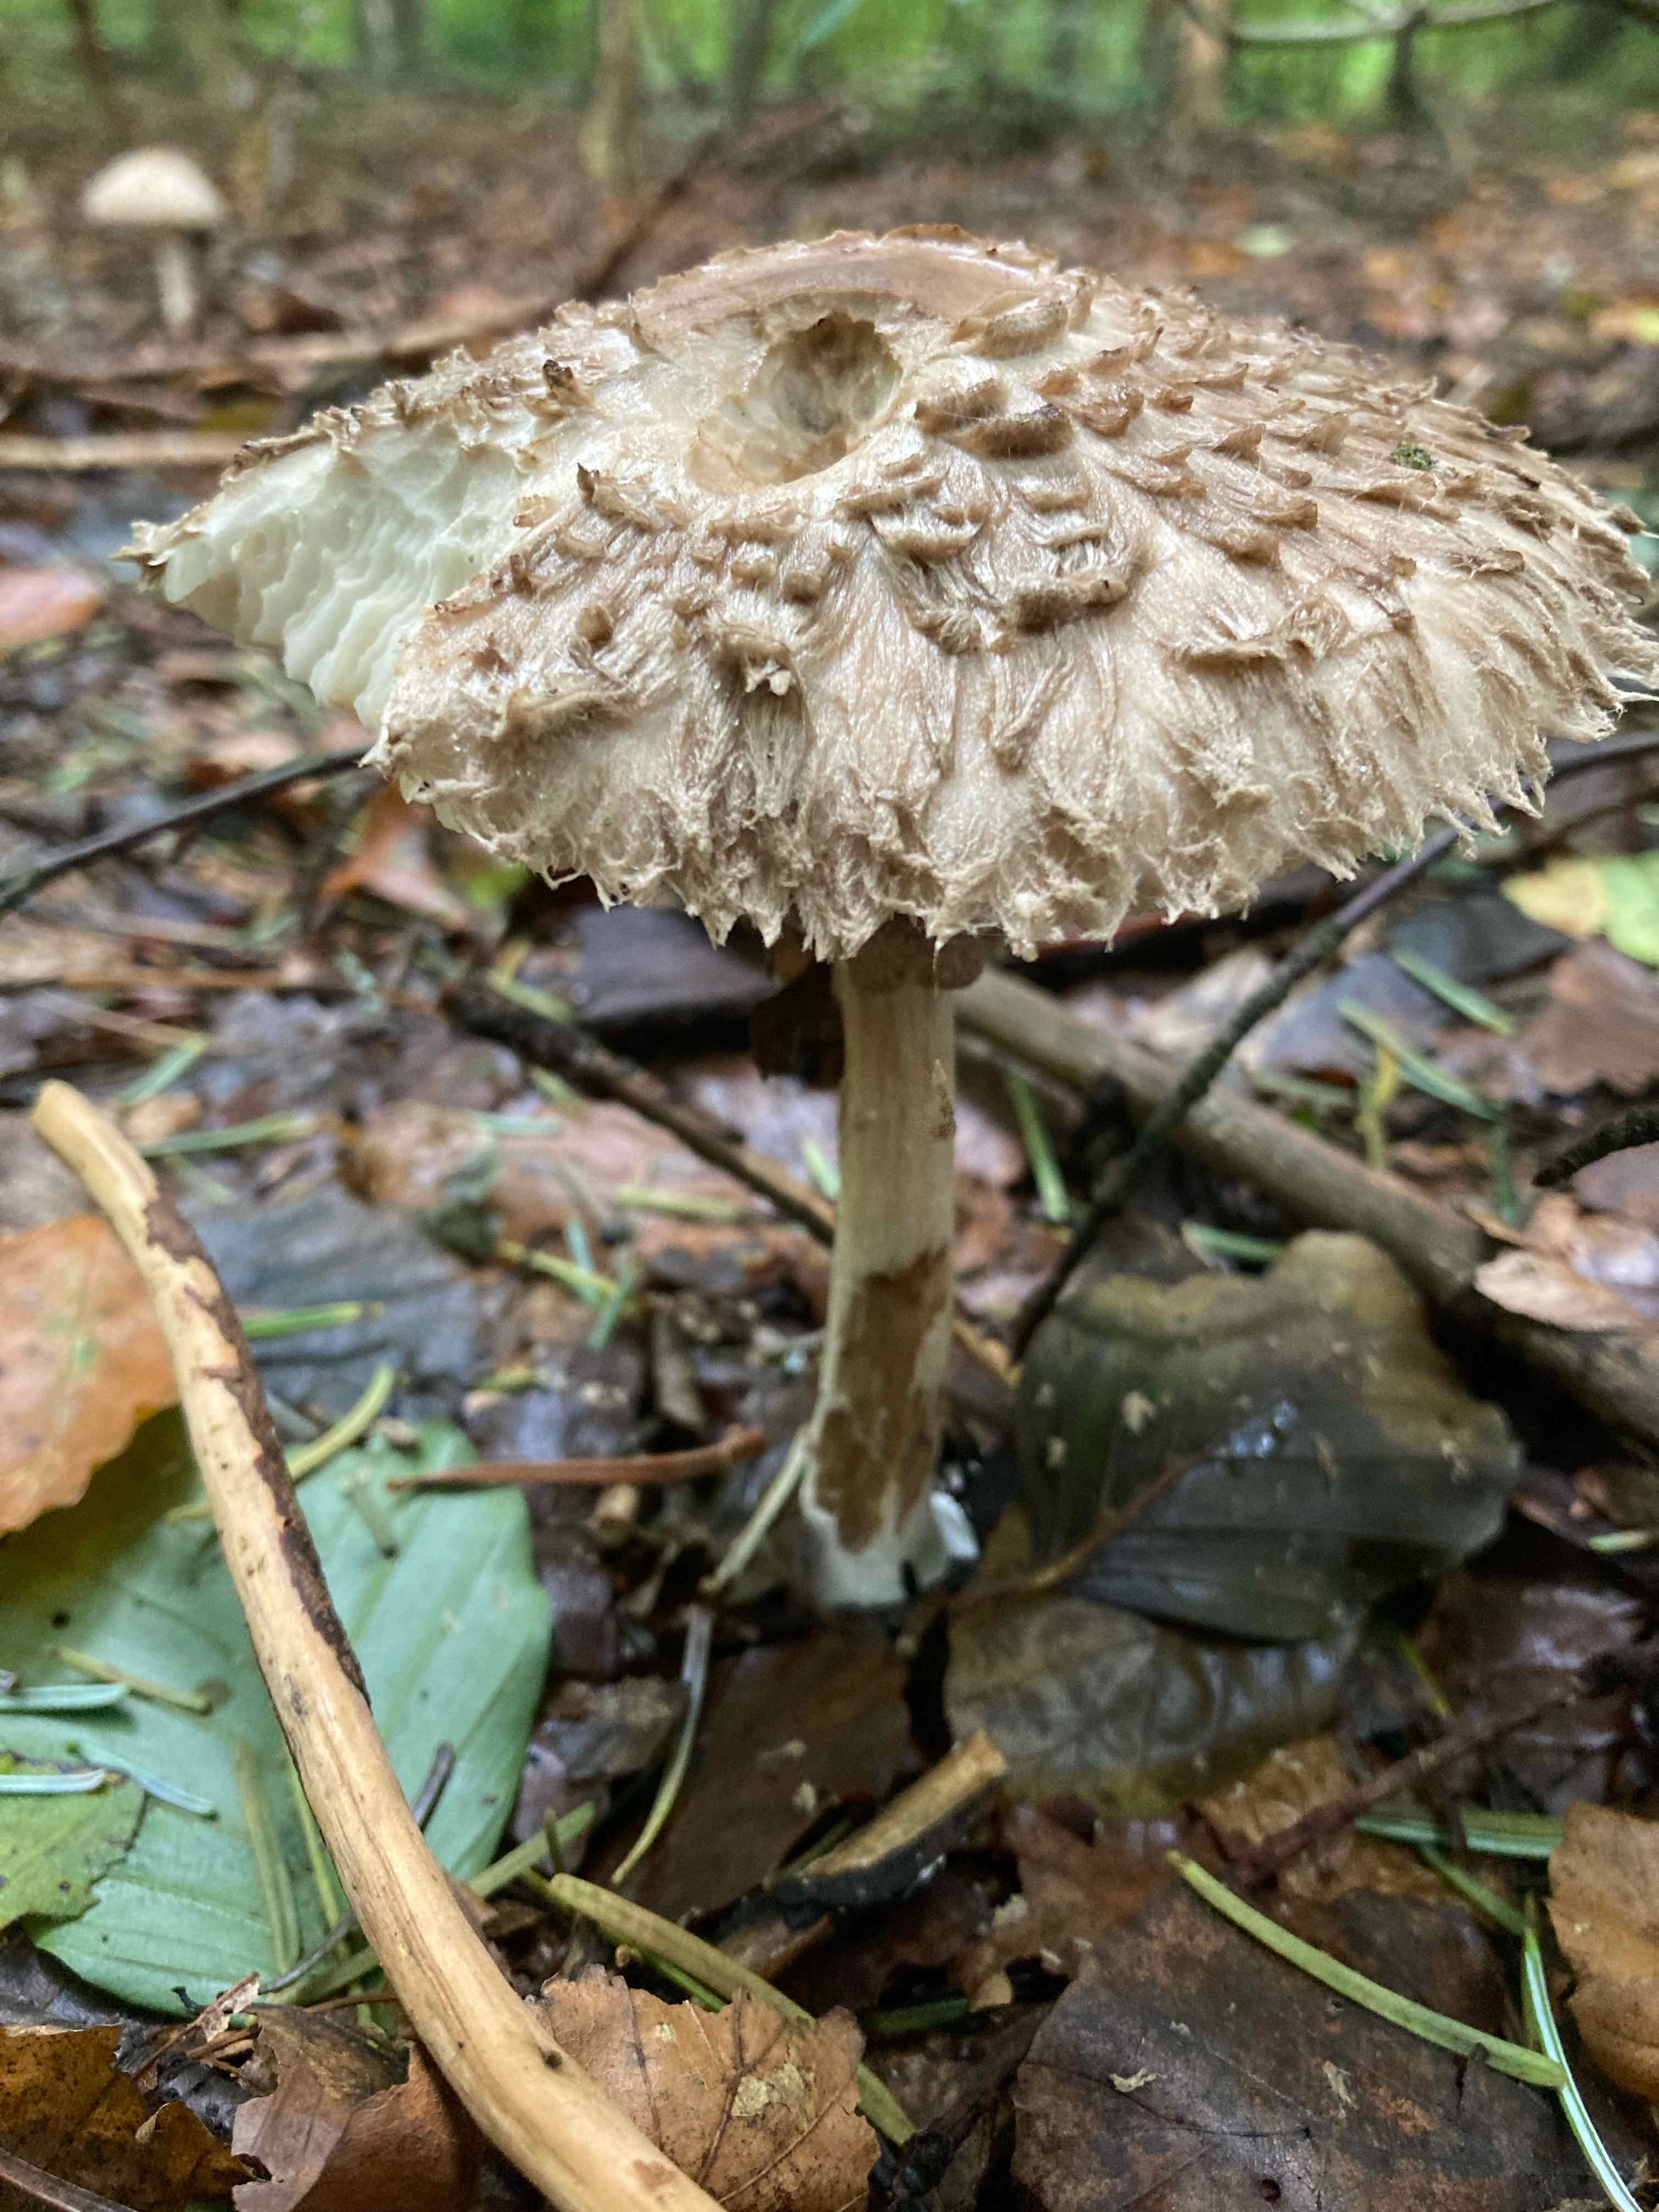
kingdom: Fungi
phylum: Basidiomycota
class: Agaricomycetes
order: Agaricales
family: Agaricaceae
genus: Chlorophyllum
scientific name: Chlorophyllum olivieri
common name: almindelig rabarberhat
